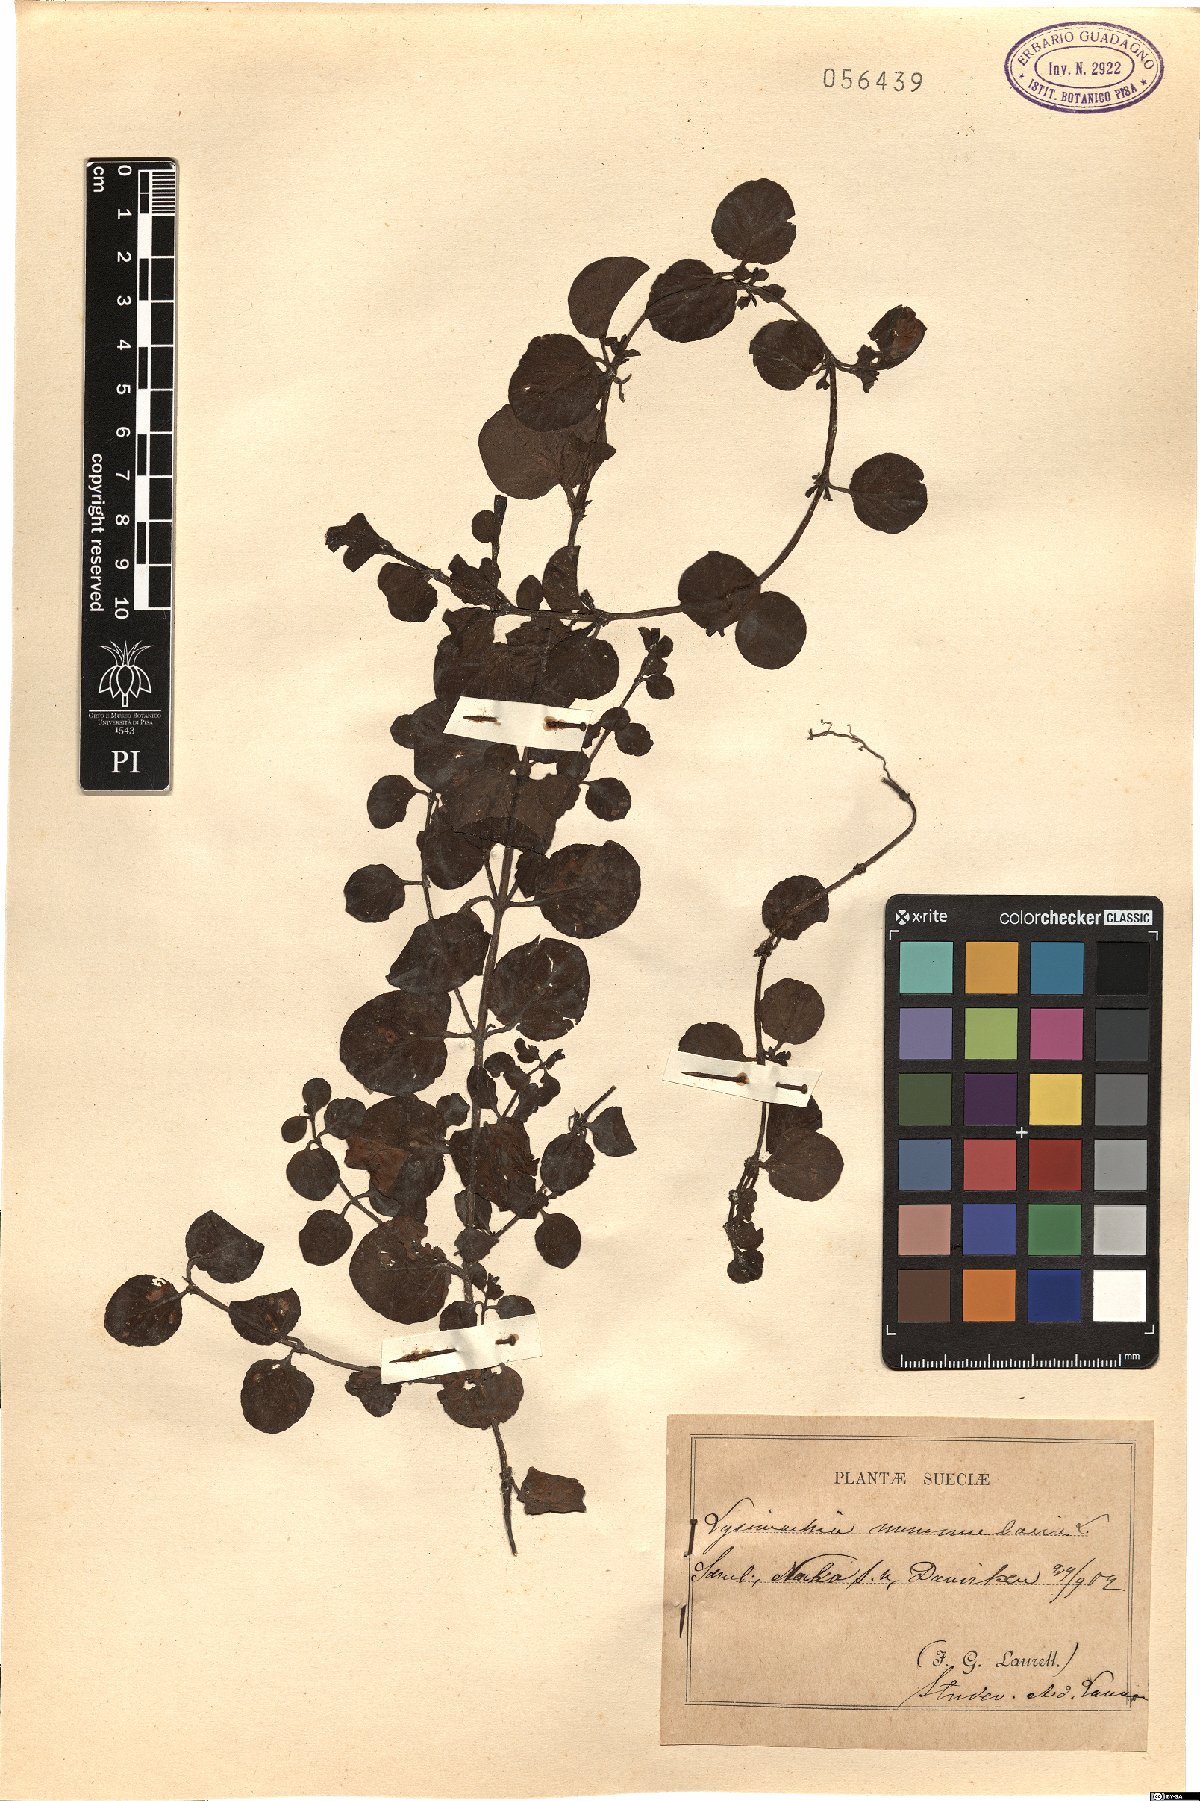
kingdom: Plantae
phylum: Tracheophyta
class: Magnoliopsida
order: Ericales
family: Primulaceae
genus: Lysimachia
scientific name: Lysimachia nummularia
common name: Moneywort
